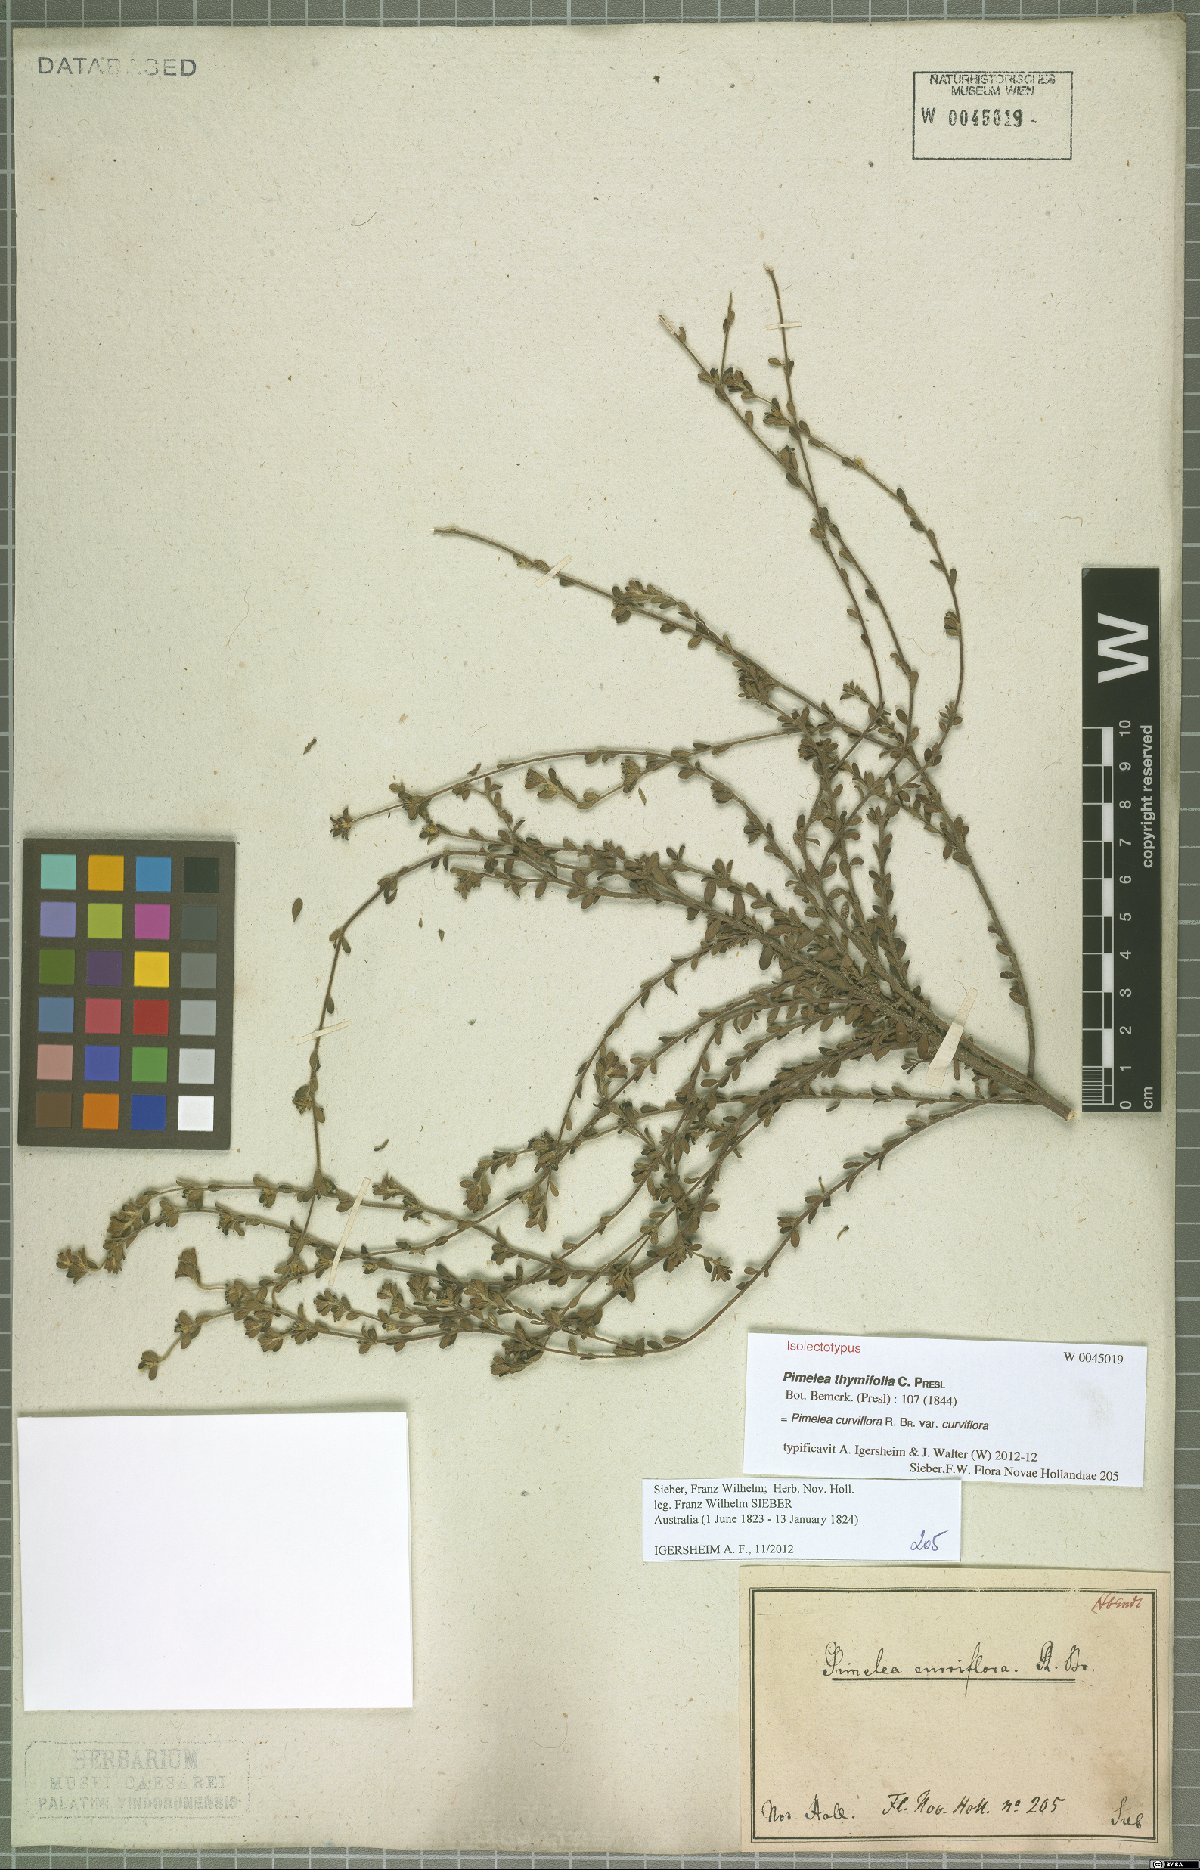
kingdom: Plantae
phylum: Tracheophyta
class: Magnoliopsida
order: Malvales
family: Thymelaeaceae
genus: Pimelea
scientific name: Pimelea curviflora
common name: Curved riceflower
